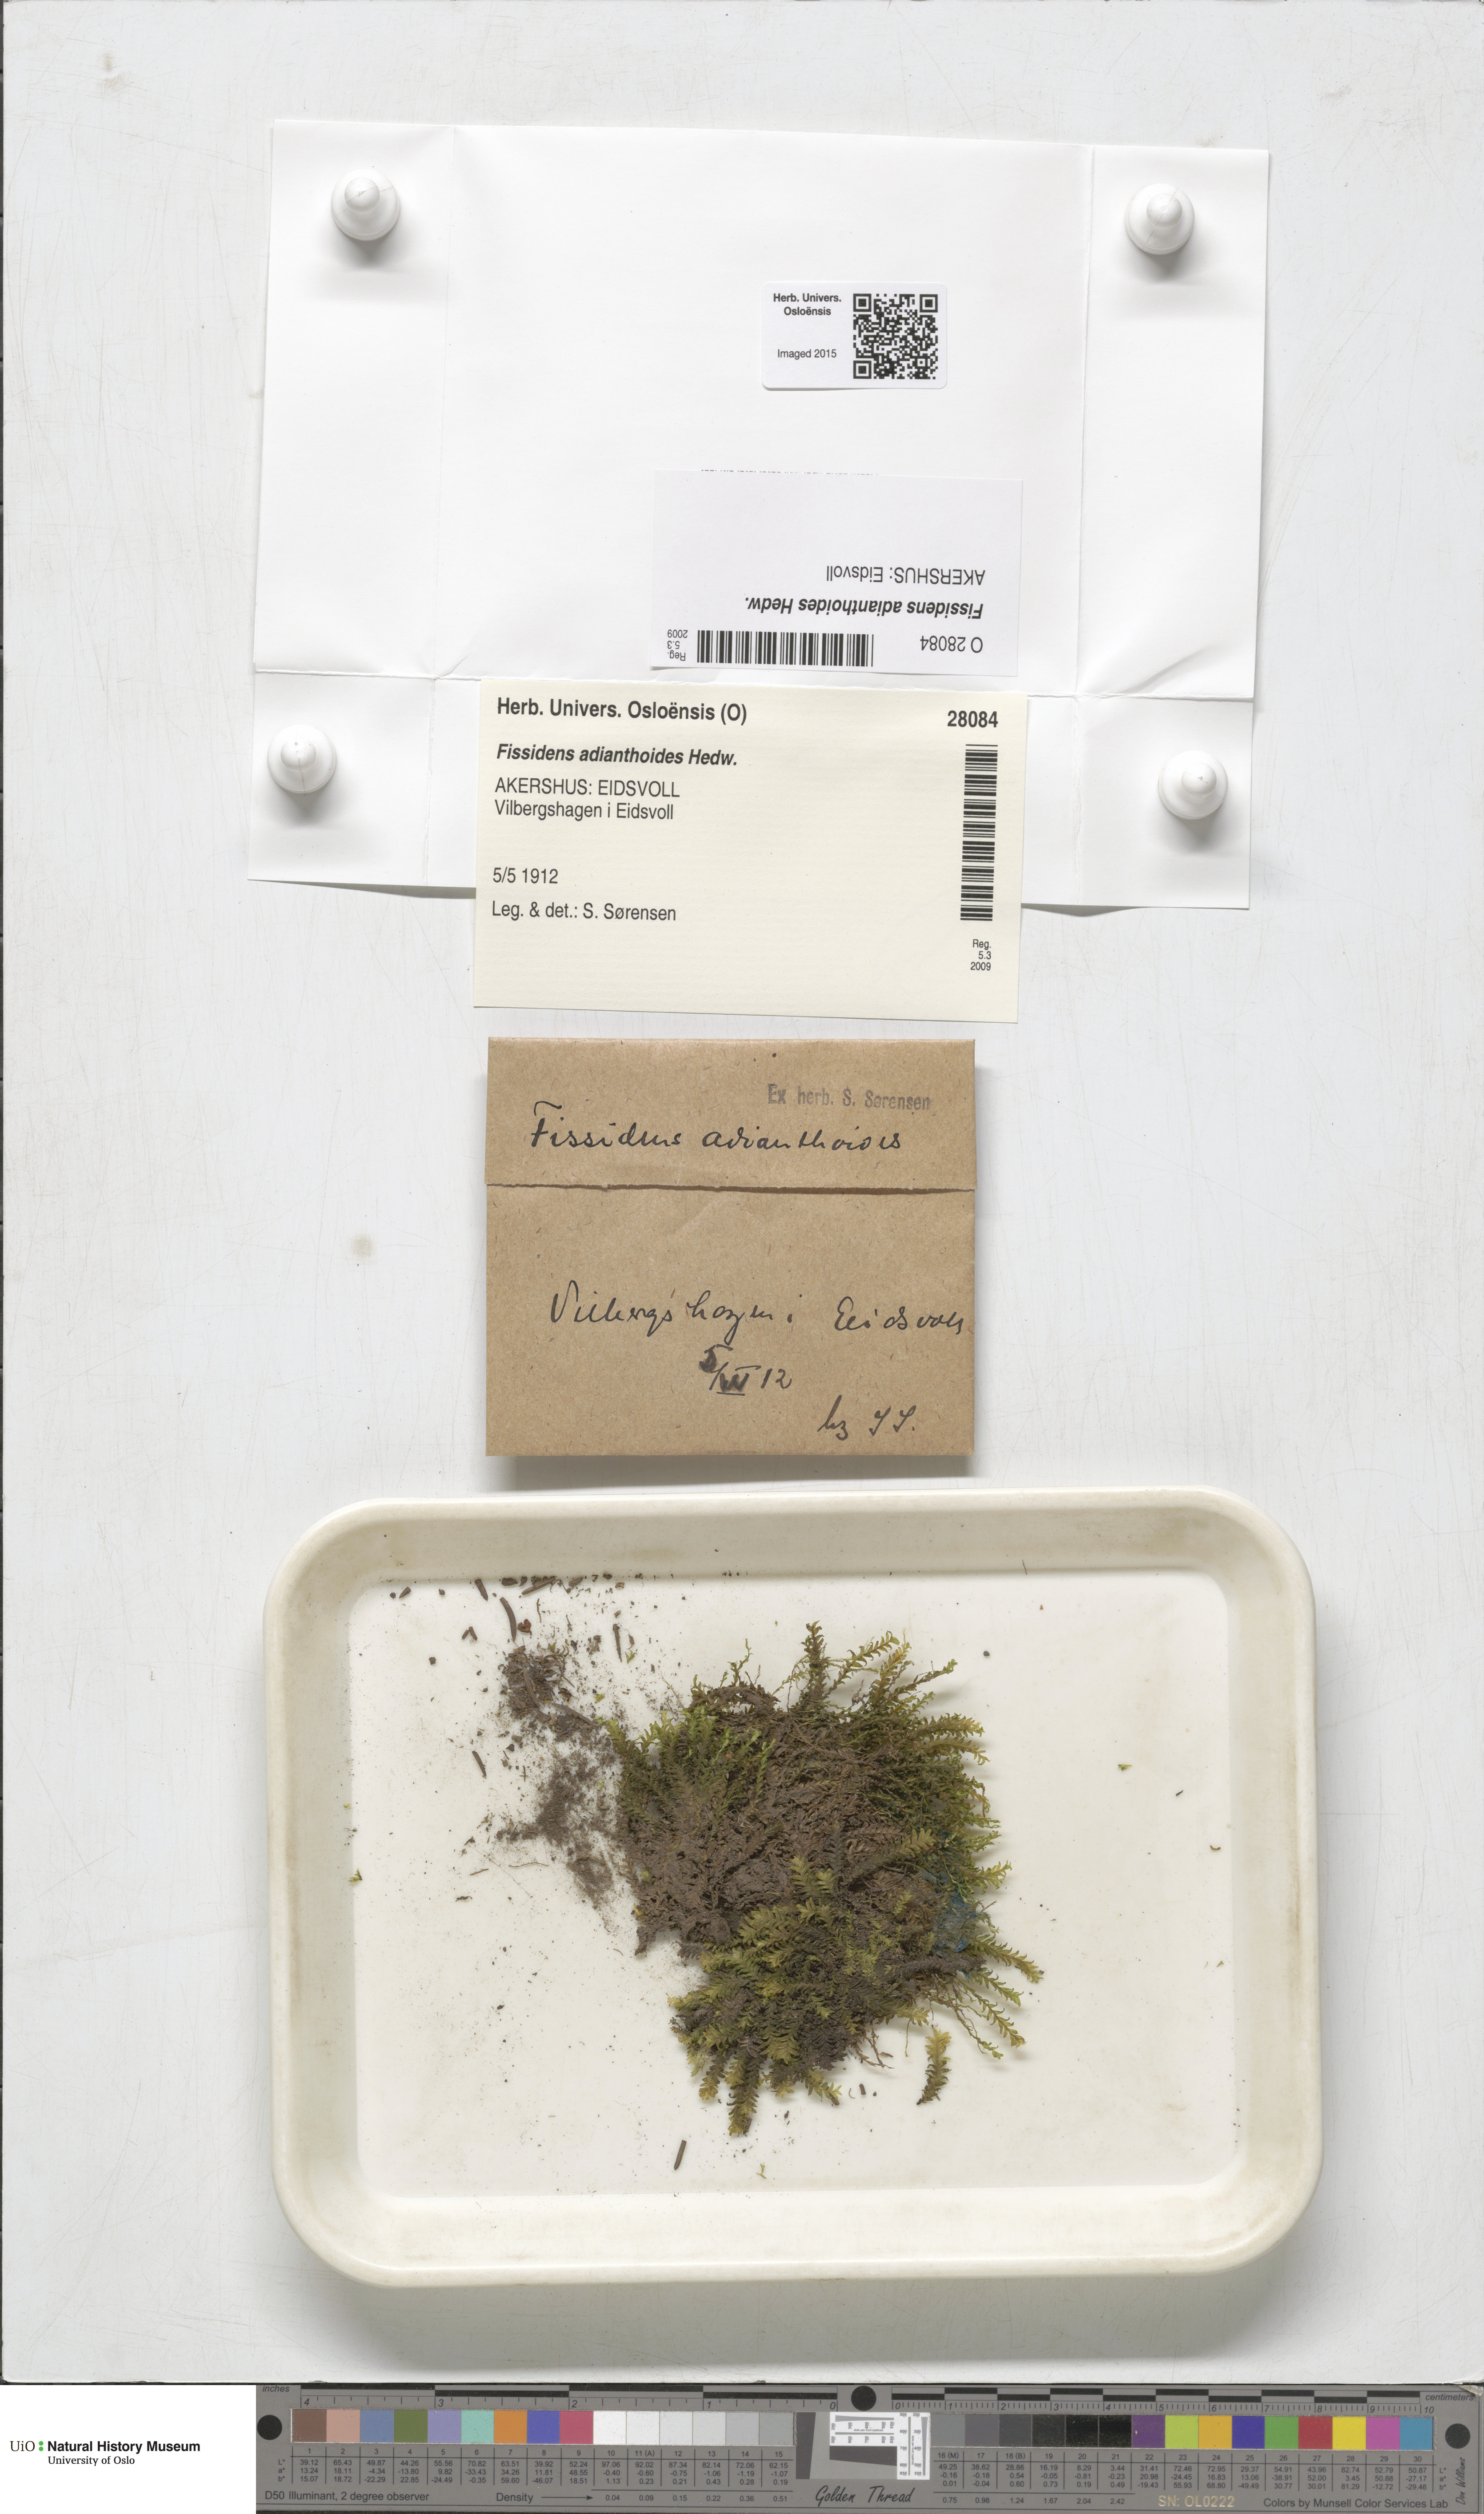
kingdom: Plantae
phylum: Bryophyta
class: Bryopsida
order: Dicranales
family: Fissidentaceae
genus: Fissidens
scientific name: Fissidens adianthoides
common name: Maidenhair pocket moss
